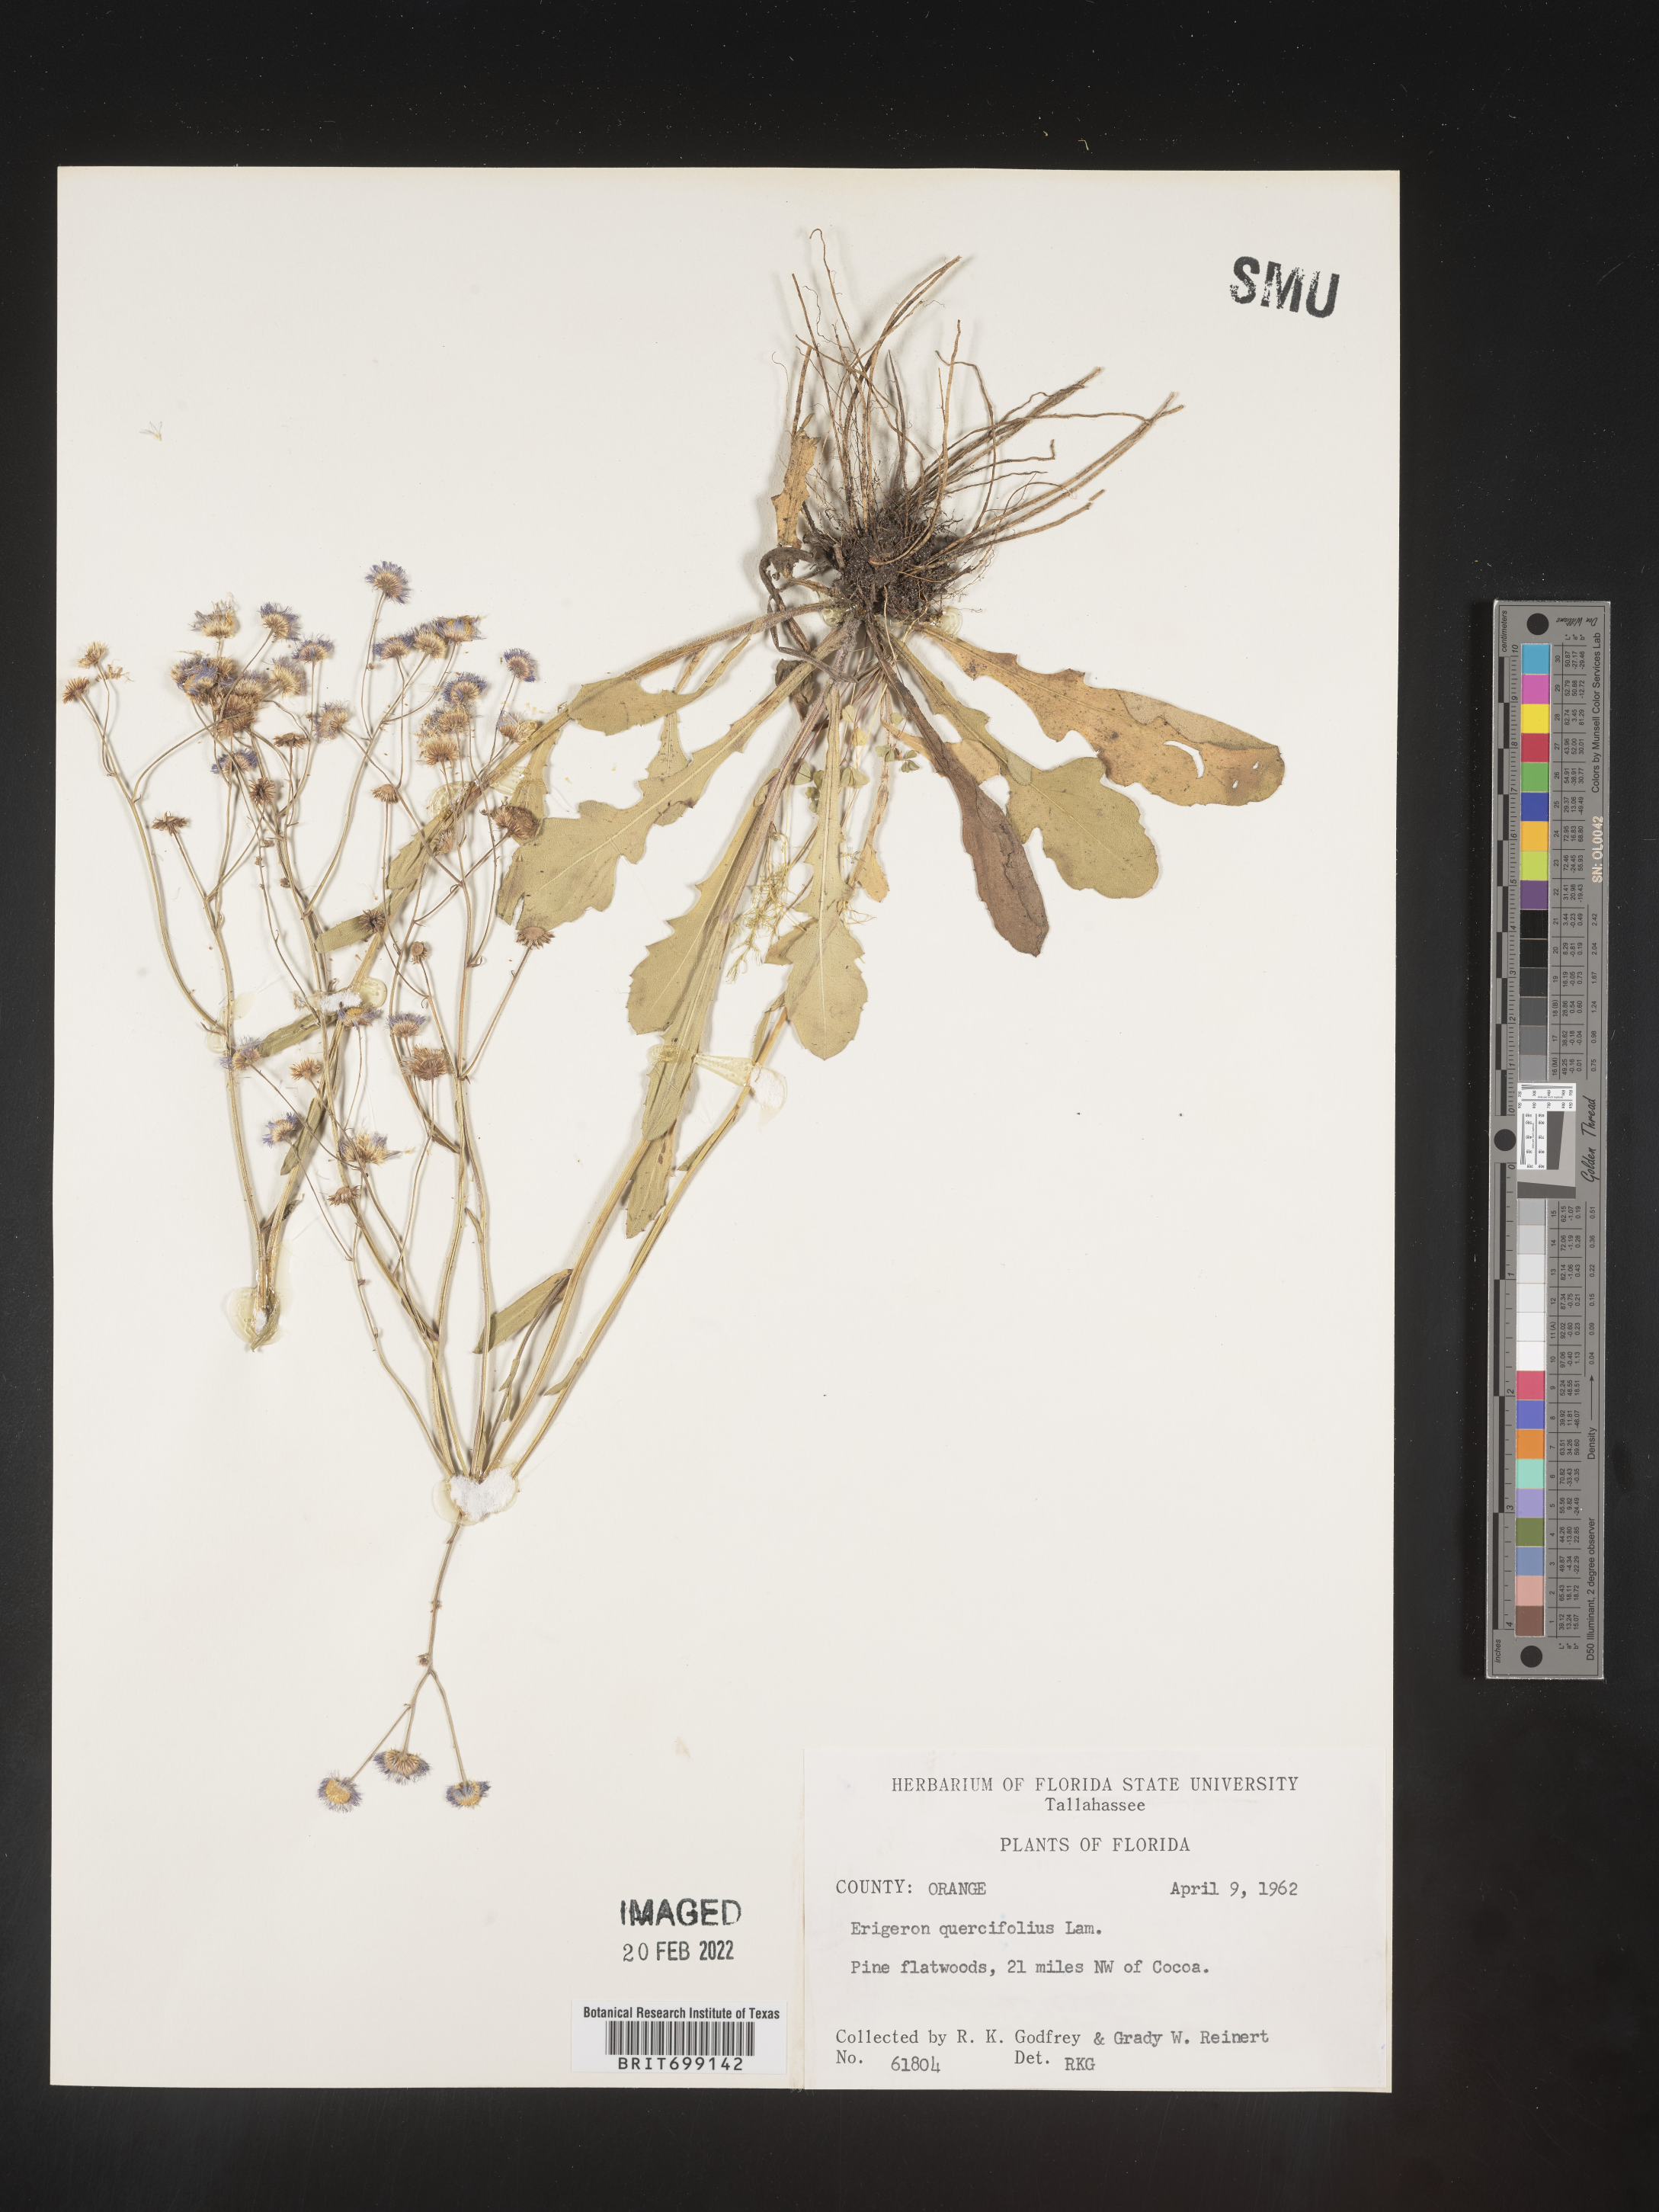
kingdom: Plantae
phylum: Tracheophyta
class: Magnoliopsida
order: Asterales
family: Asteraceae
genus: Erigeron
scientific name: Erigeron quercifolius
